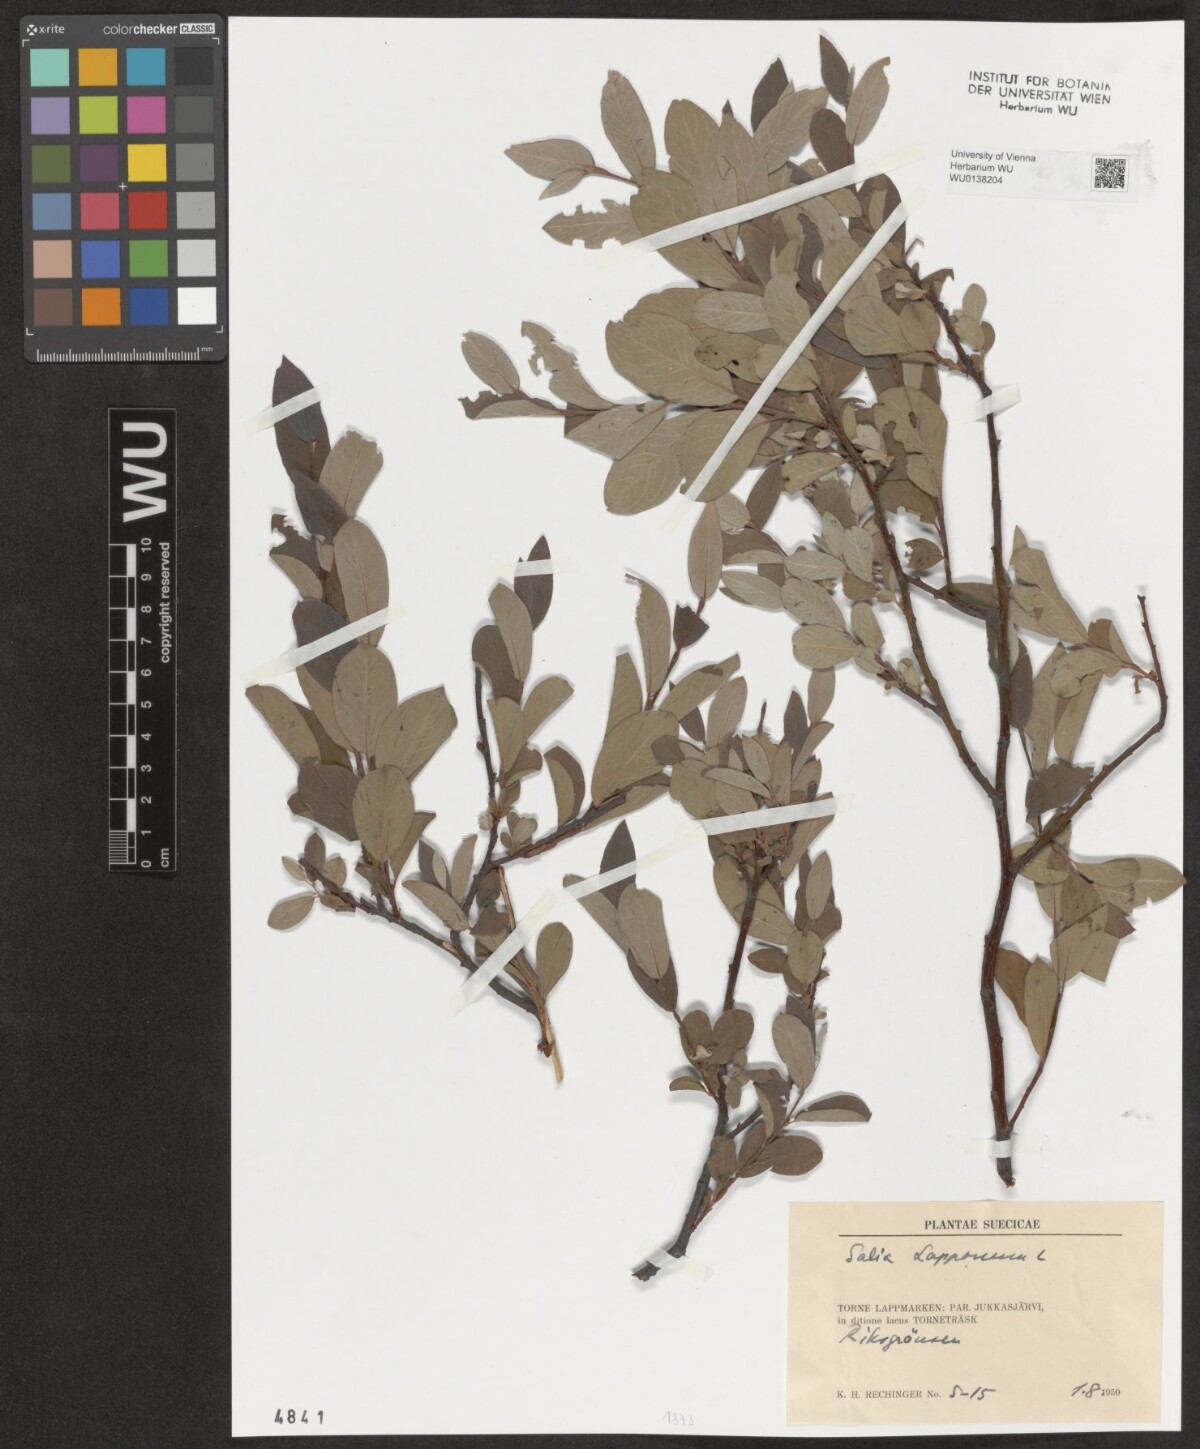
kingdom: Plantae
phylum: Tracheophyta
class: Magnoliopsida
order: Malpighiales
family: Salicaceae
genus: Salix
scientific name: Salix lapponum
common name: Downy willow
